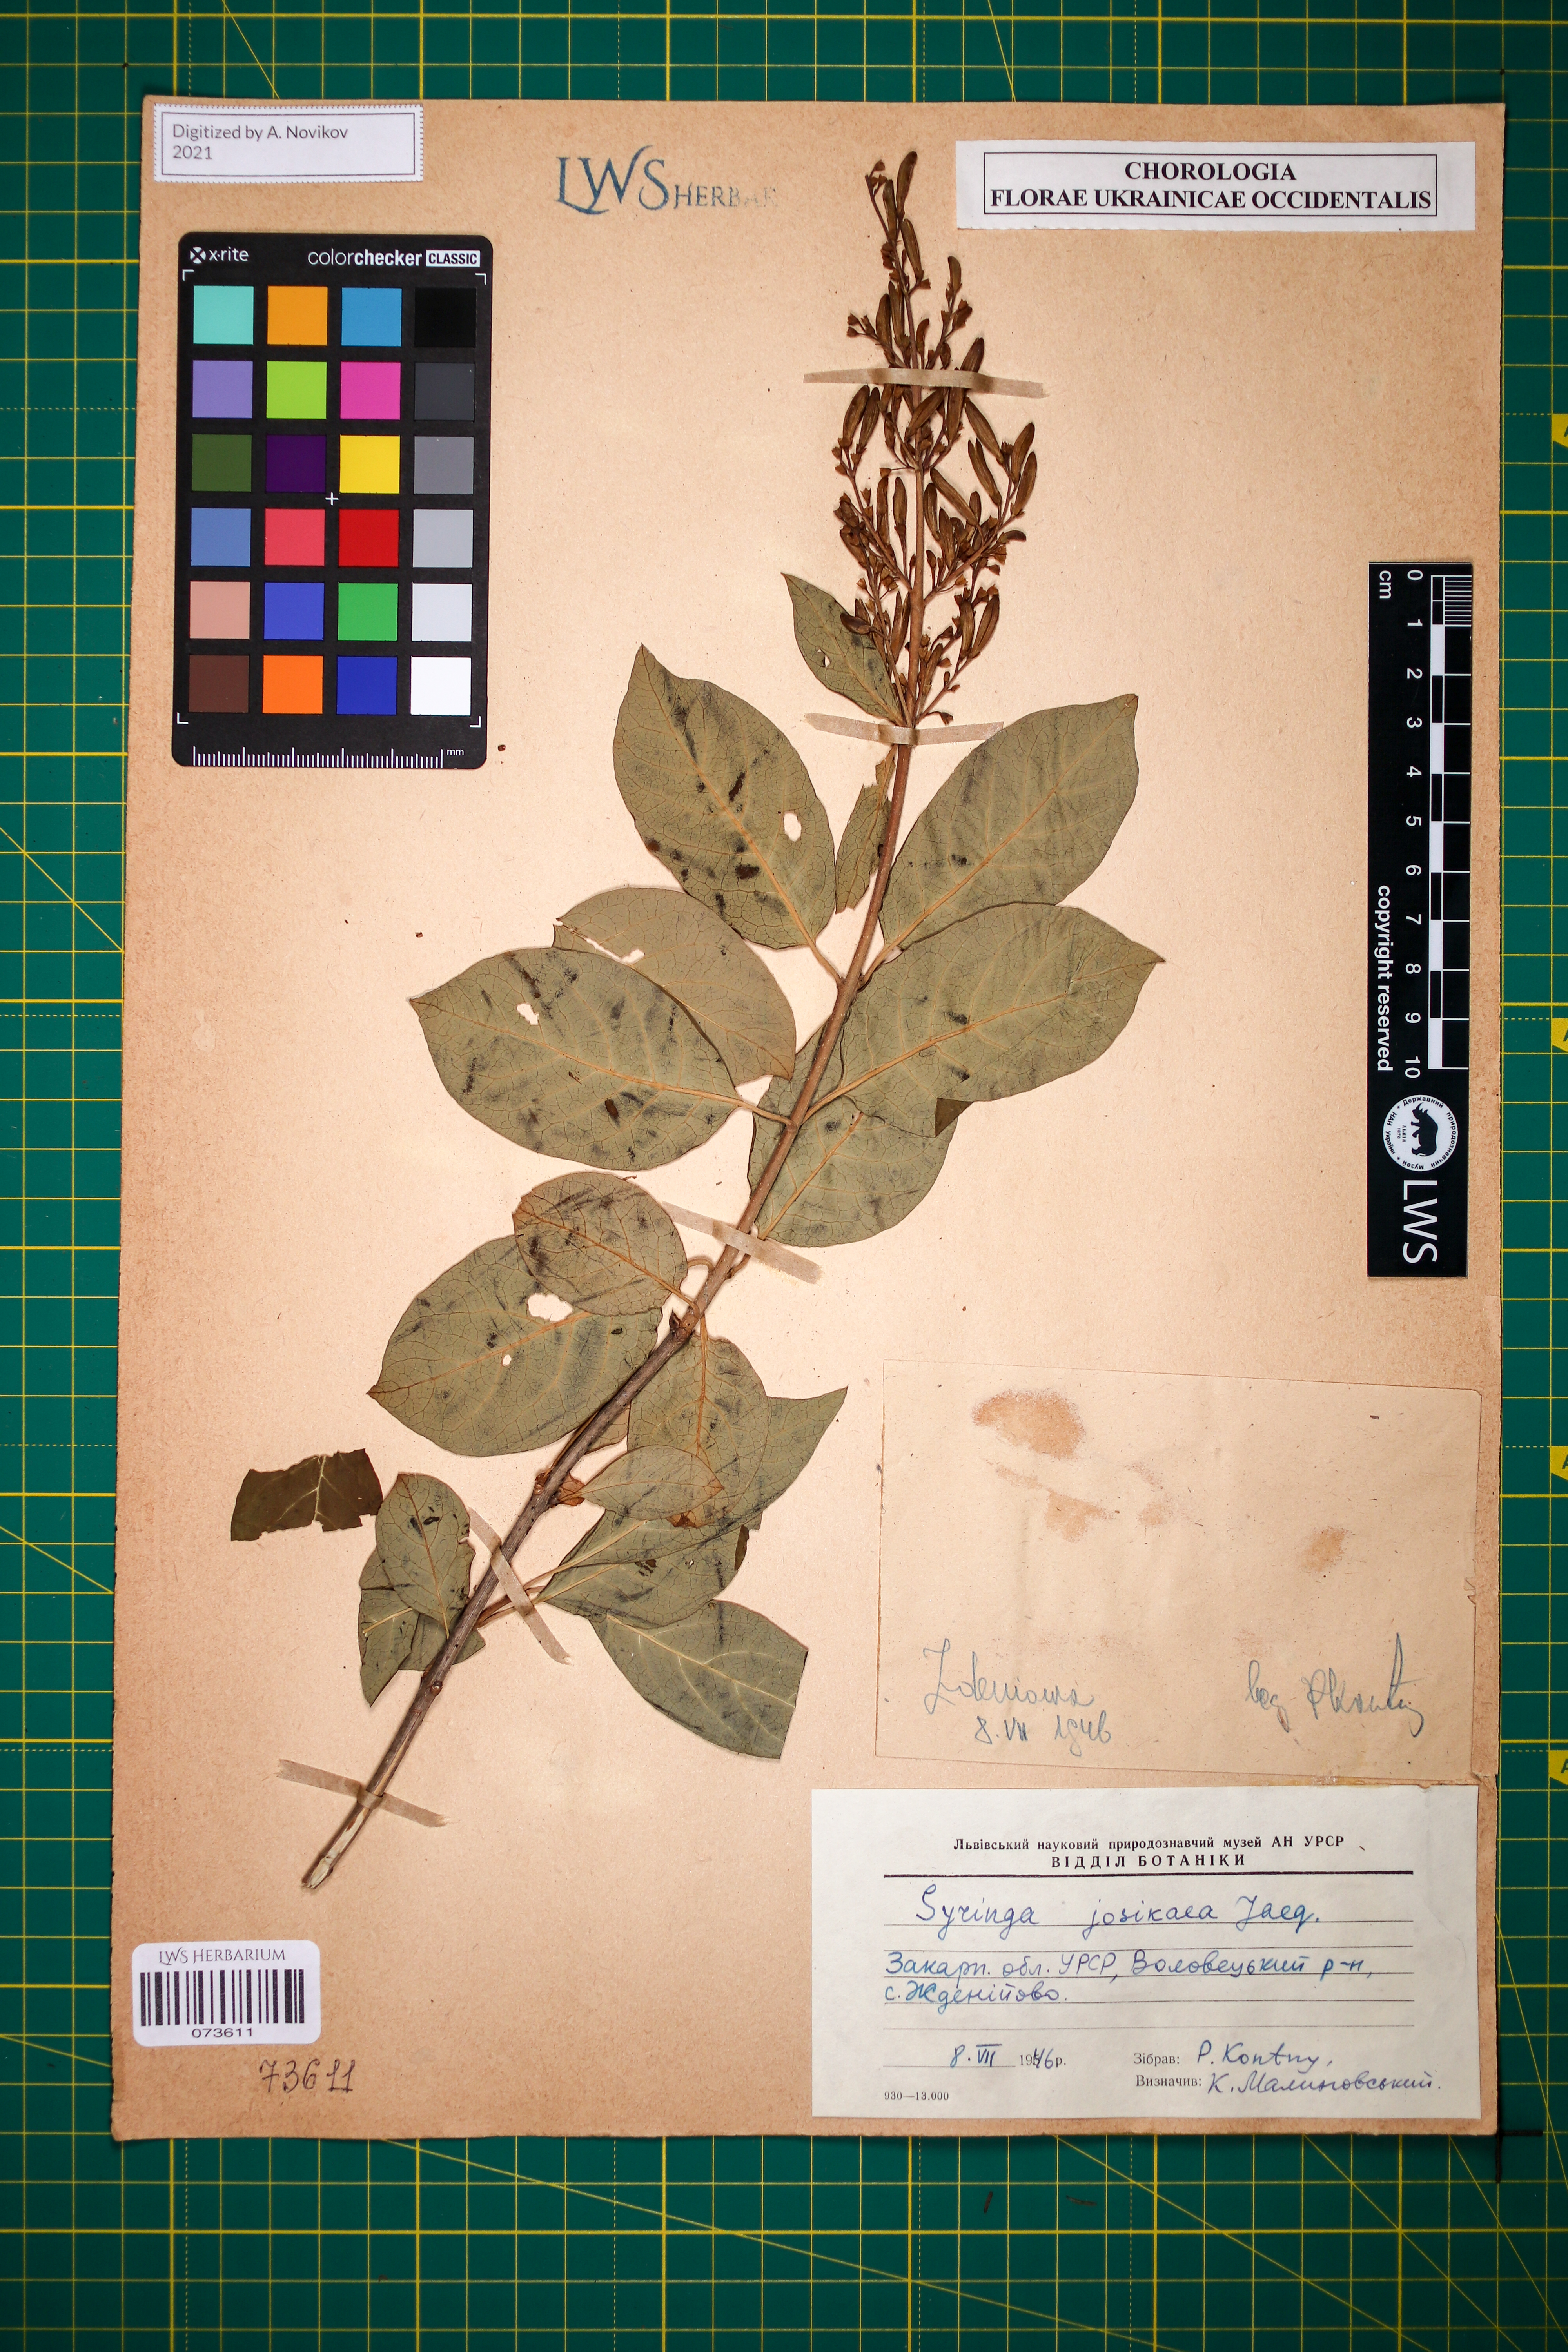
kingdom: Plantae
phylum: Tracheophyta
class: Magnoliopsida
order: Lamiales
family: Oleaceae
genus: Syringa
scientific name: Syringa josikaea
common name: Hungarian lilac
